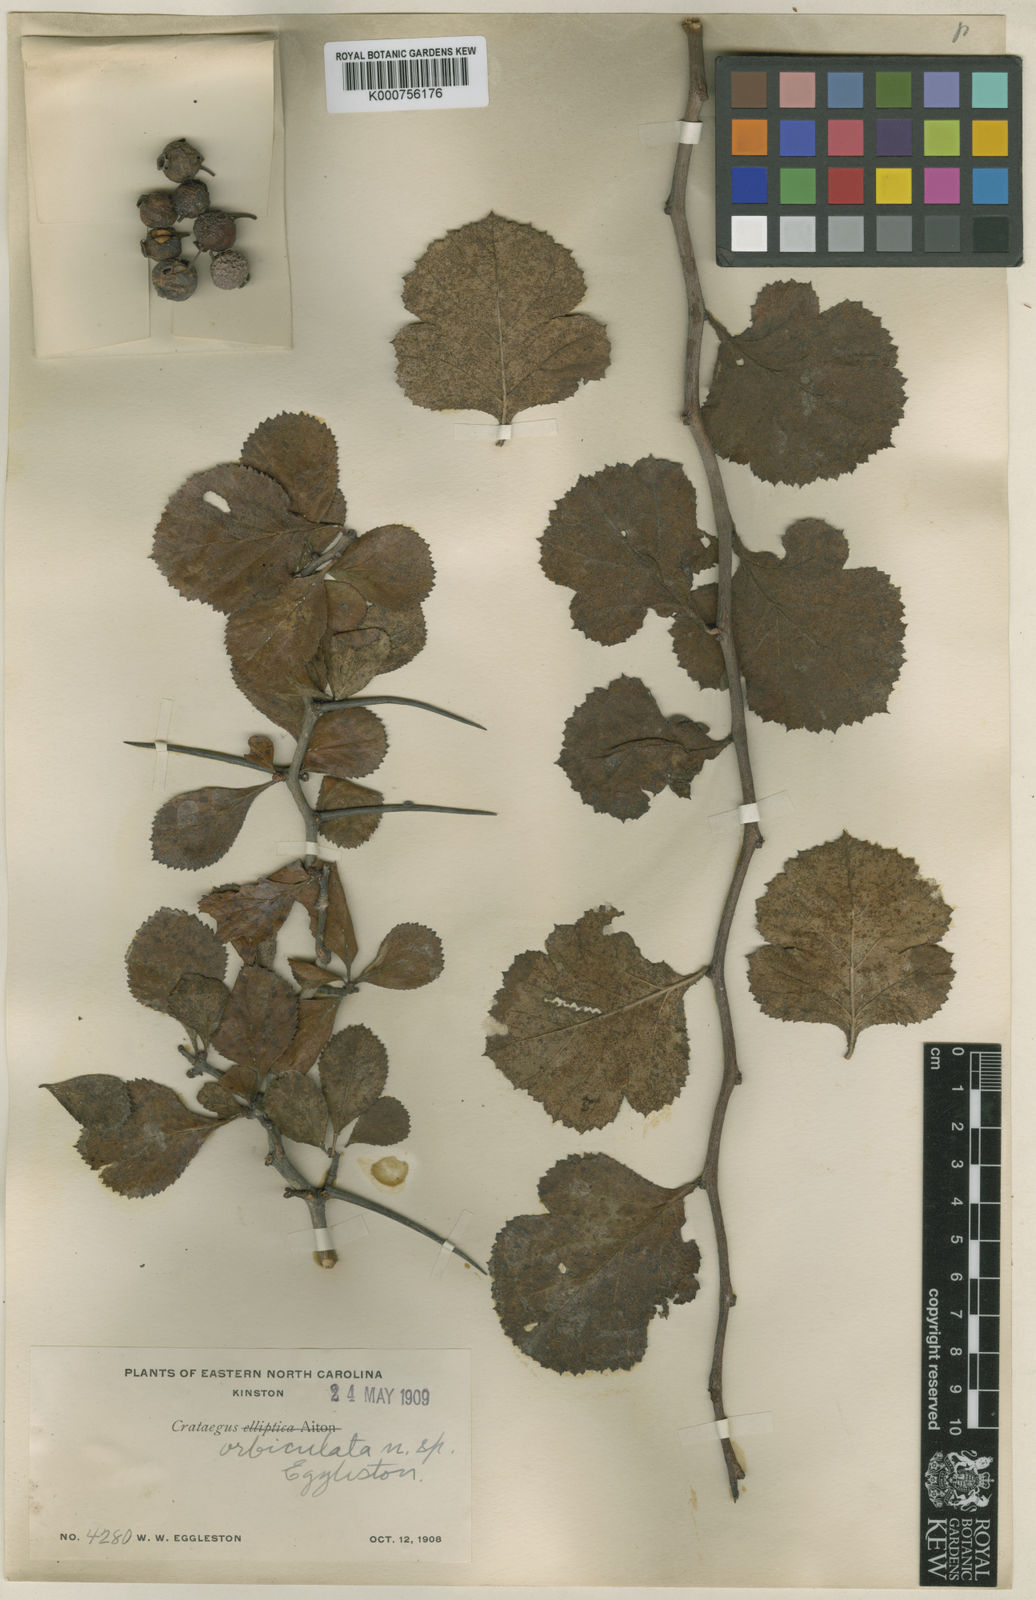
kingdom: Plantae
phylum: Tracheophyta
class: Magnoliopsida
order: Rosales
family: Rosaceae
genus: Crataegus
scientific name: Crataegus
